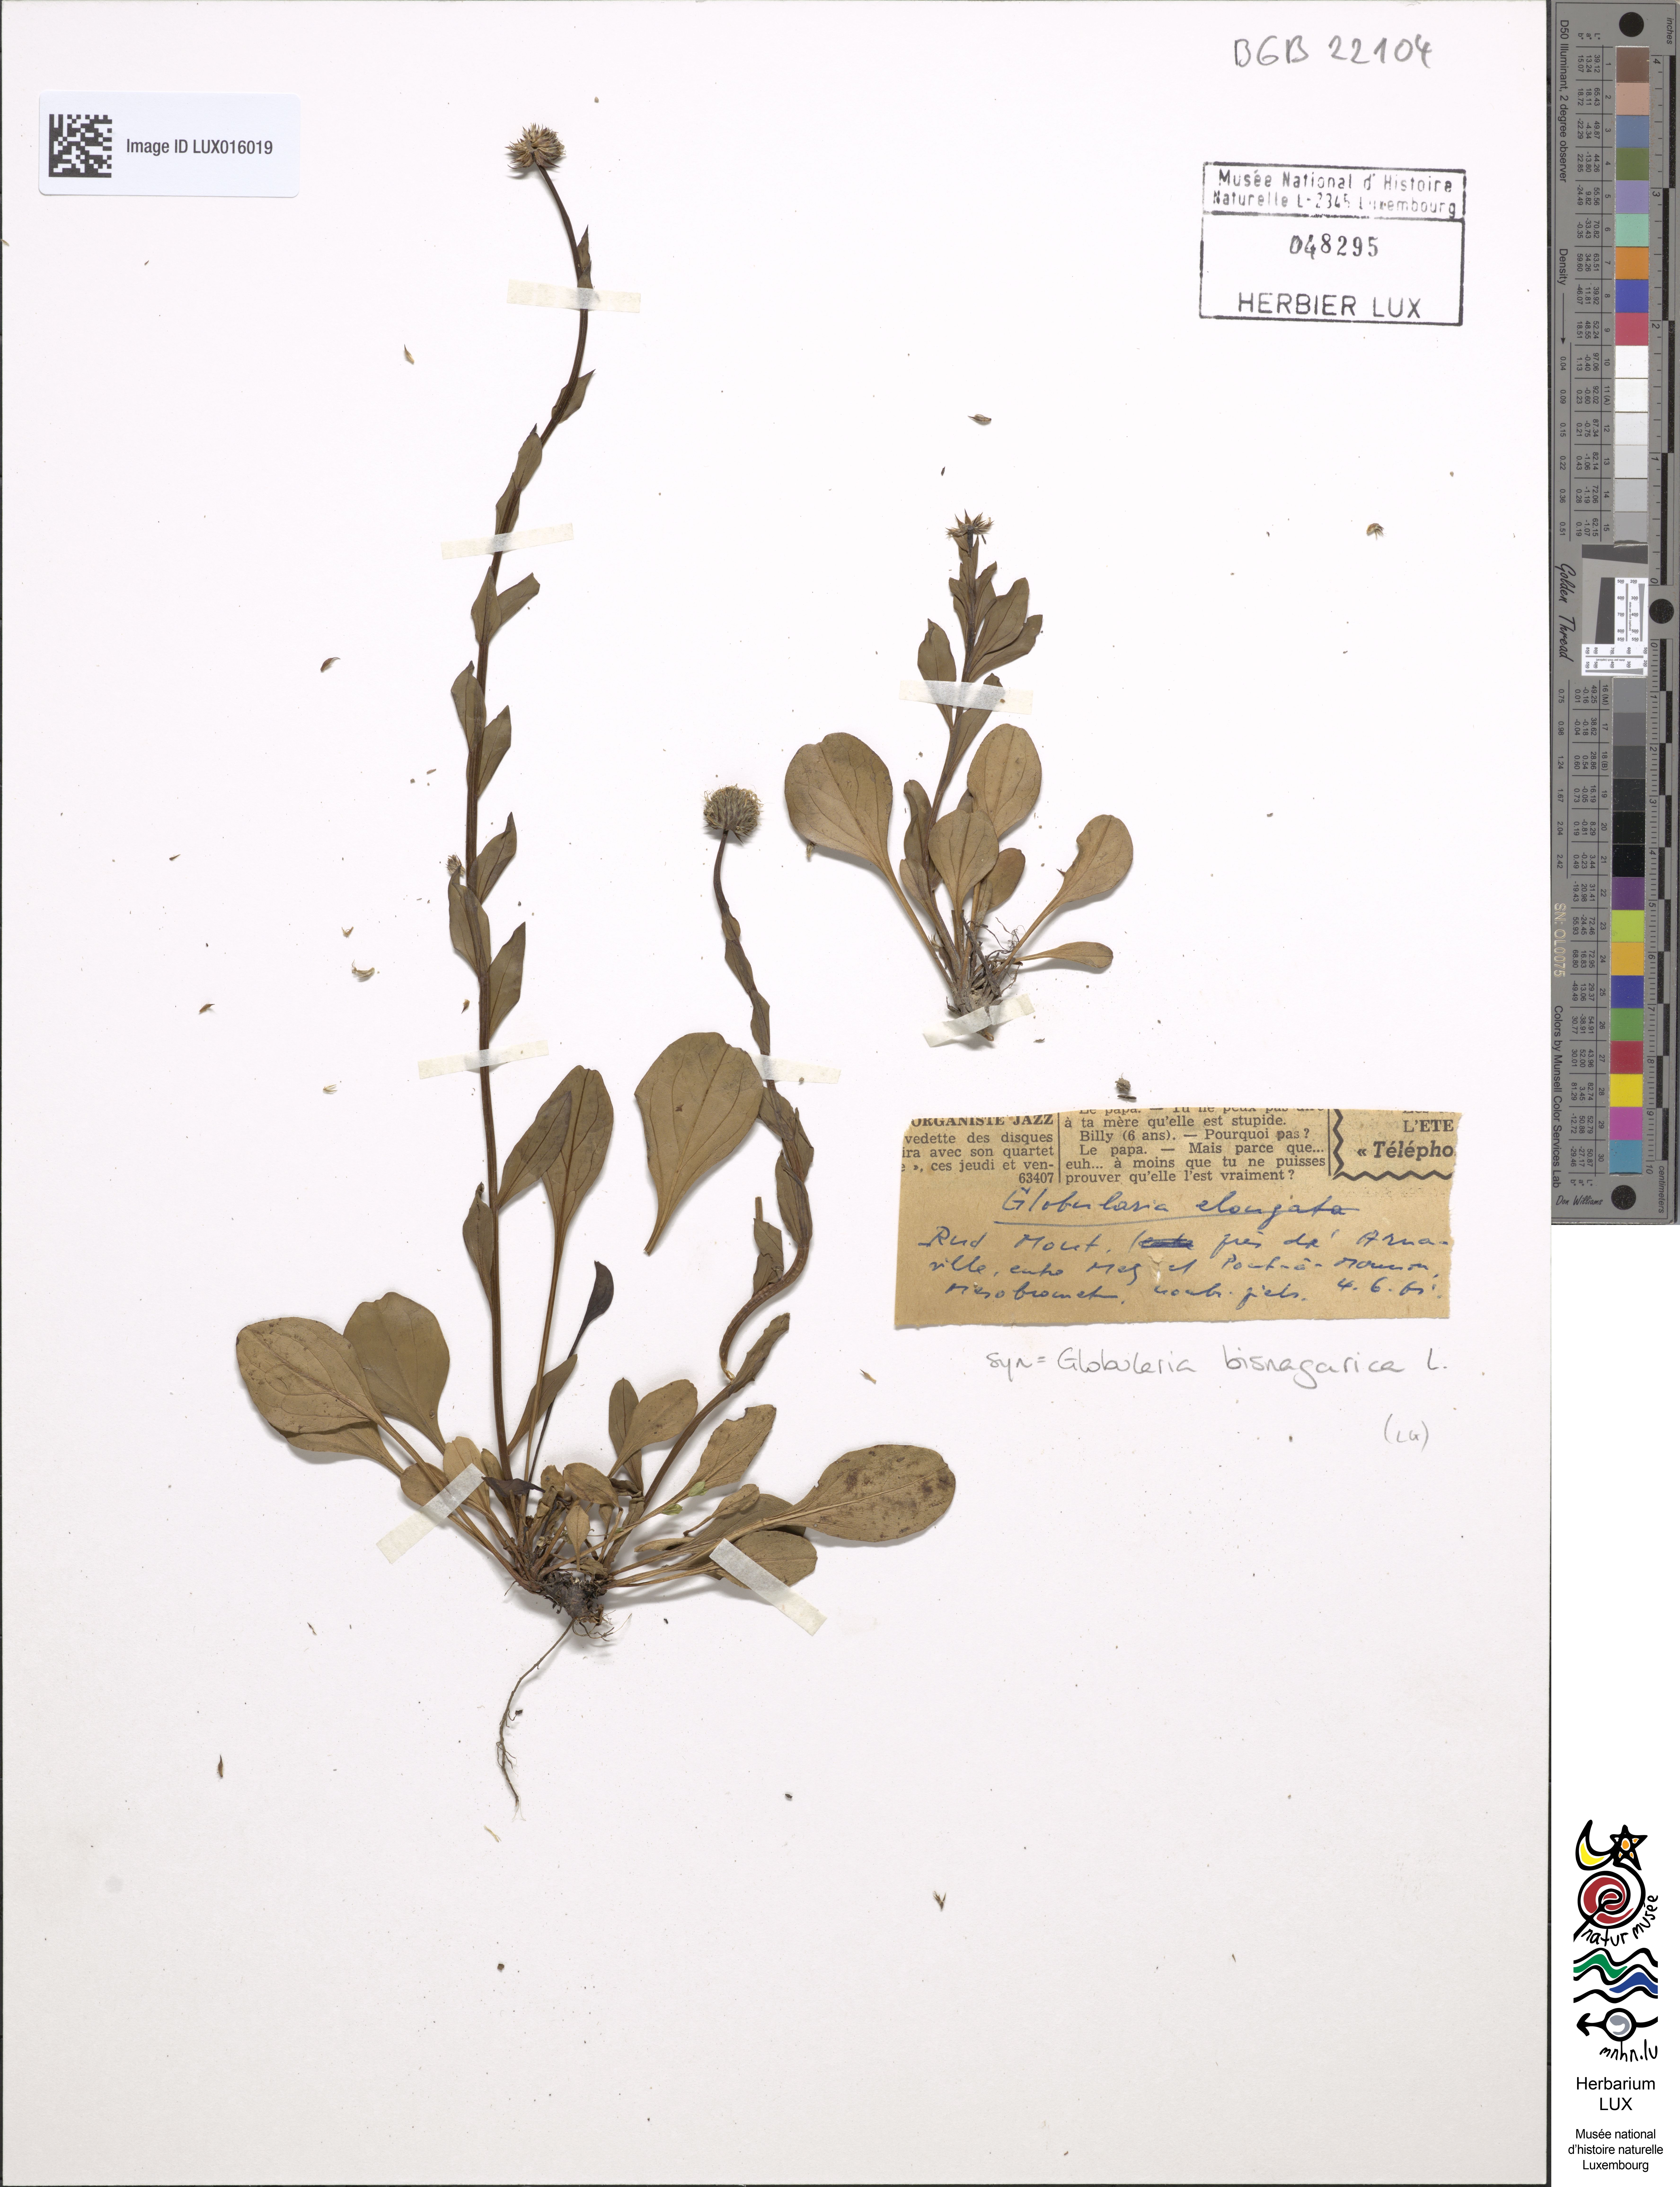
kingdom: Plantae
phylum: Tracheophyta
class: Magnoliopsida
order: Lamiales
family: Plantaginaceae
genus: Globularia
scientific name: Globularia bisnagarica
